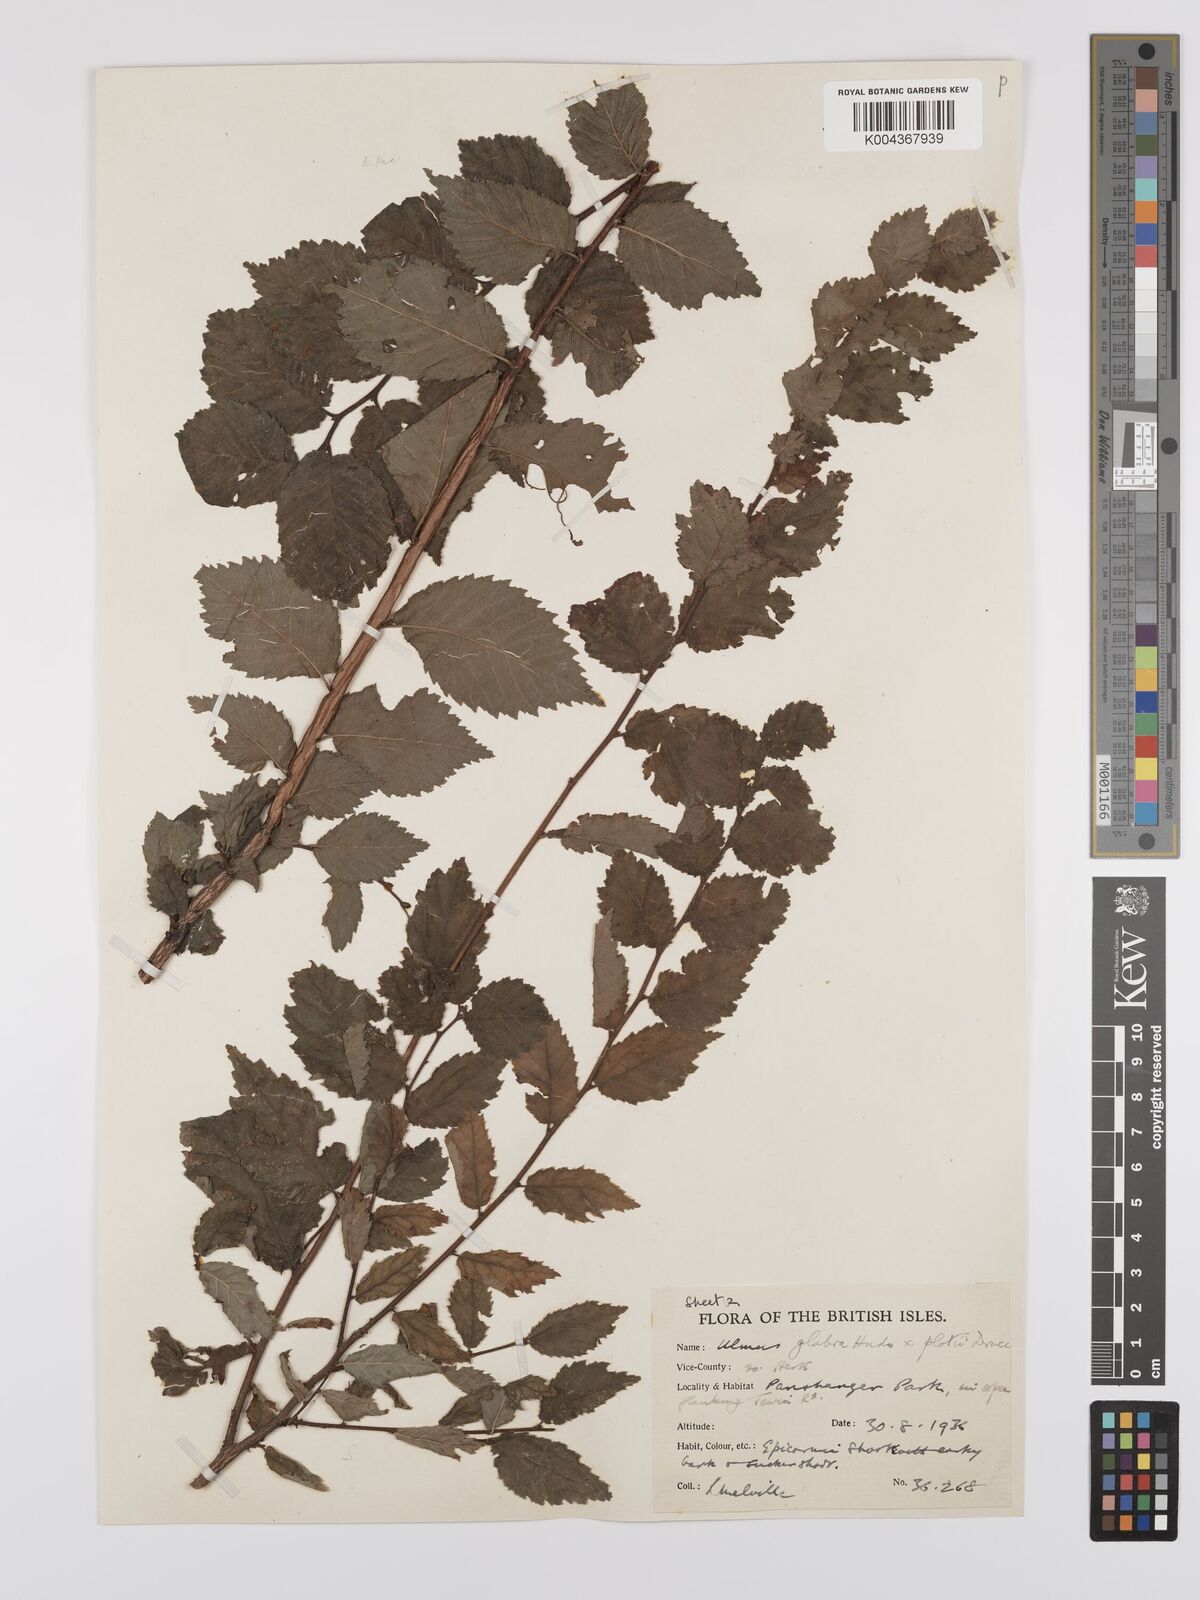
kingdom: Plantae
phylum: Tracheophyta
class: Magnoliopsida
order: Rosales
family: Ulmaceae
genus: Ulmus
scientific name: Ulmus glabra
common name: Wych elm
